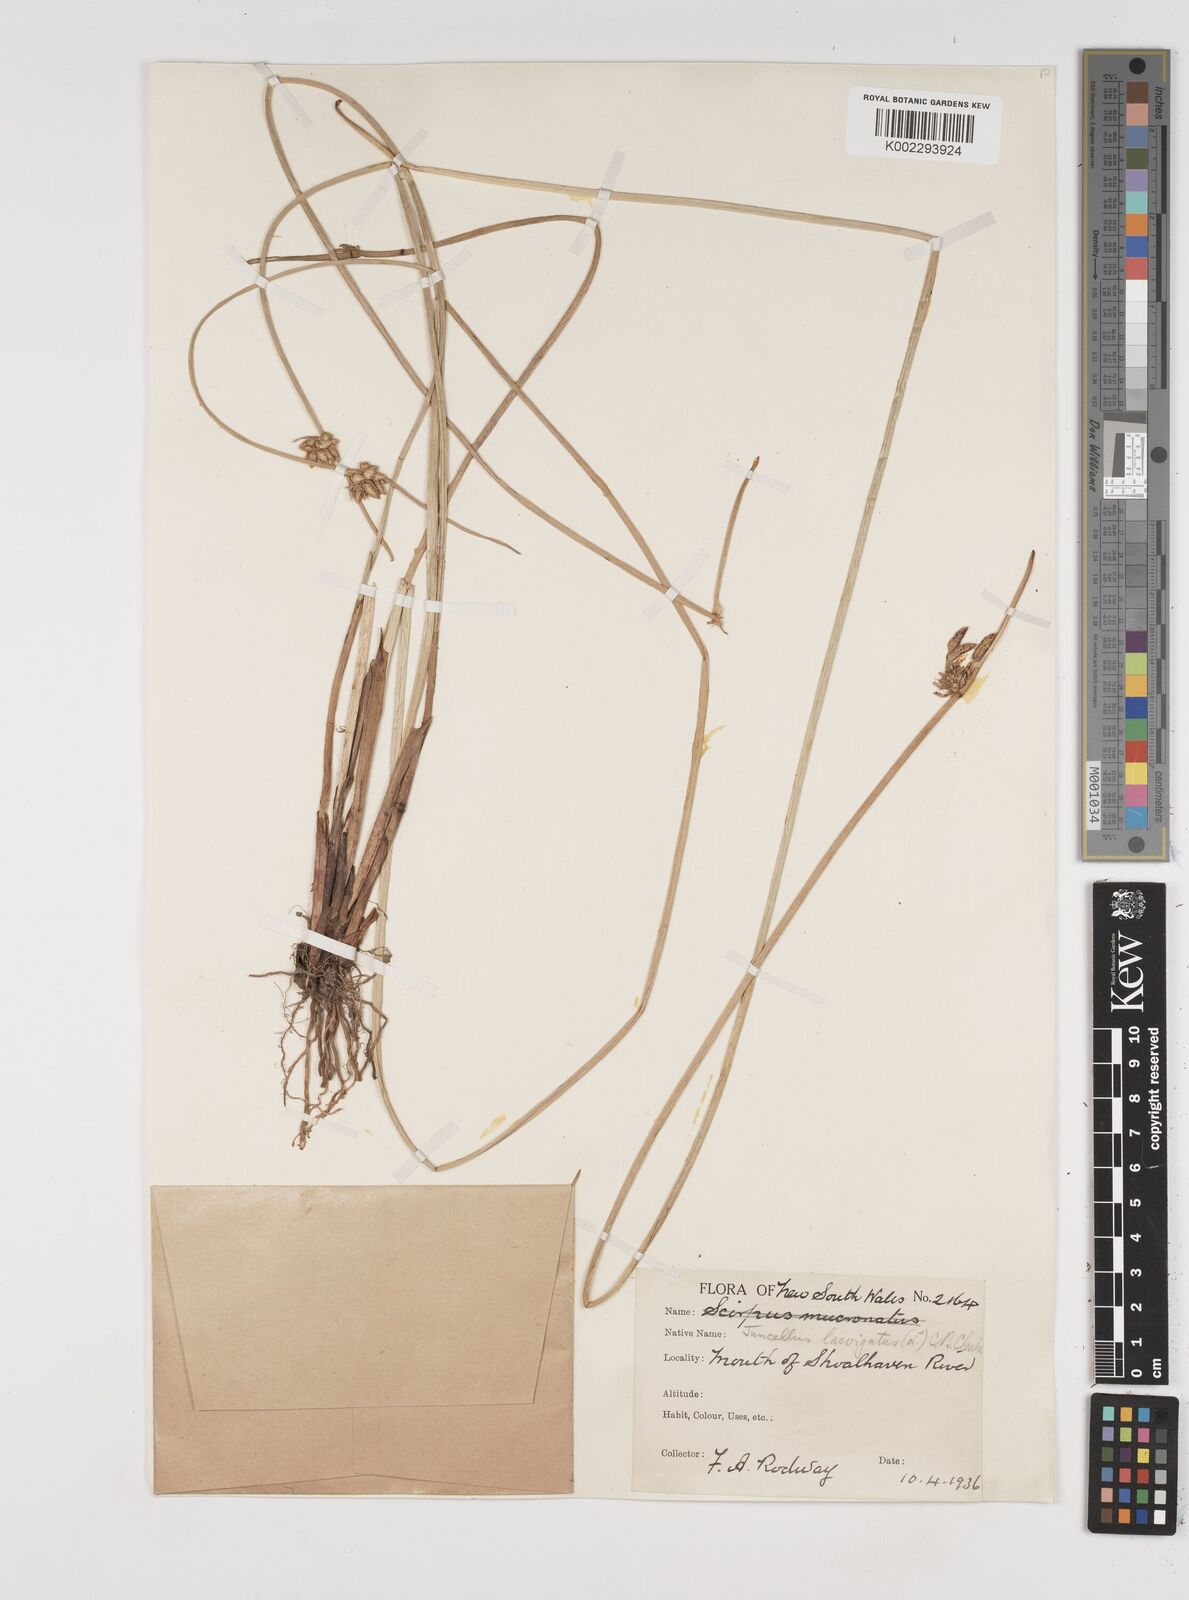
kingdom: Plantae
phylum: Tracheophyta
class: Liliopsida
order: Poales
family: Cyperaceae
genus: Cyperus
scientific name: Cyperus laevigatus
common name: Smooth flat sedge
